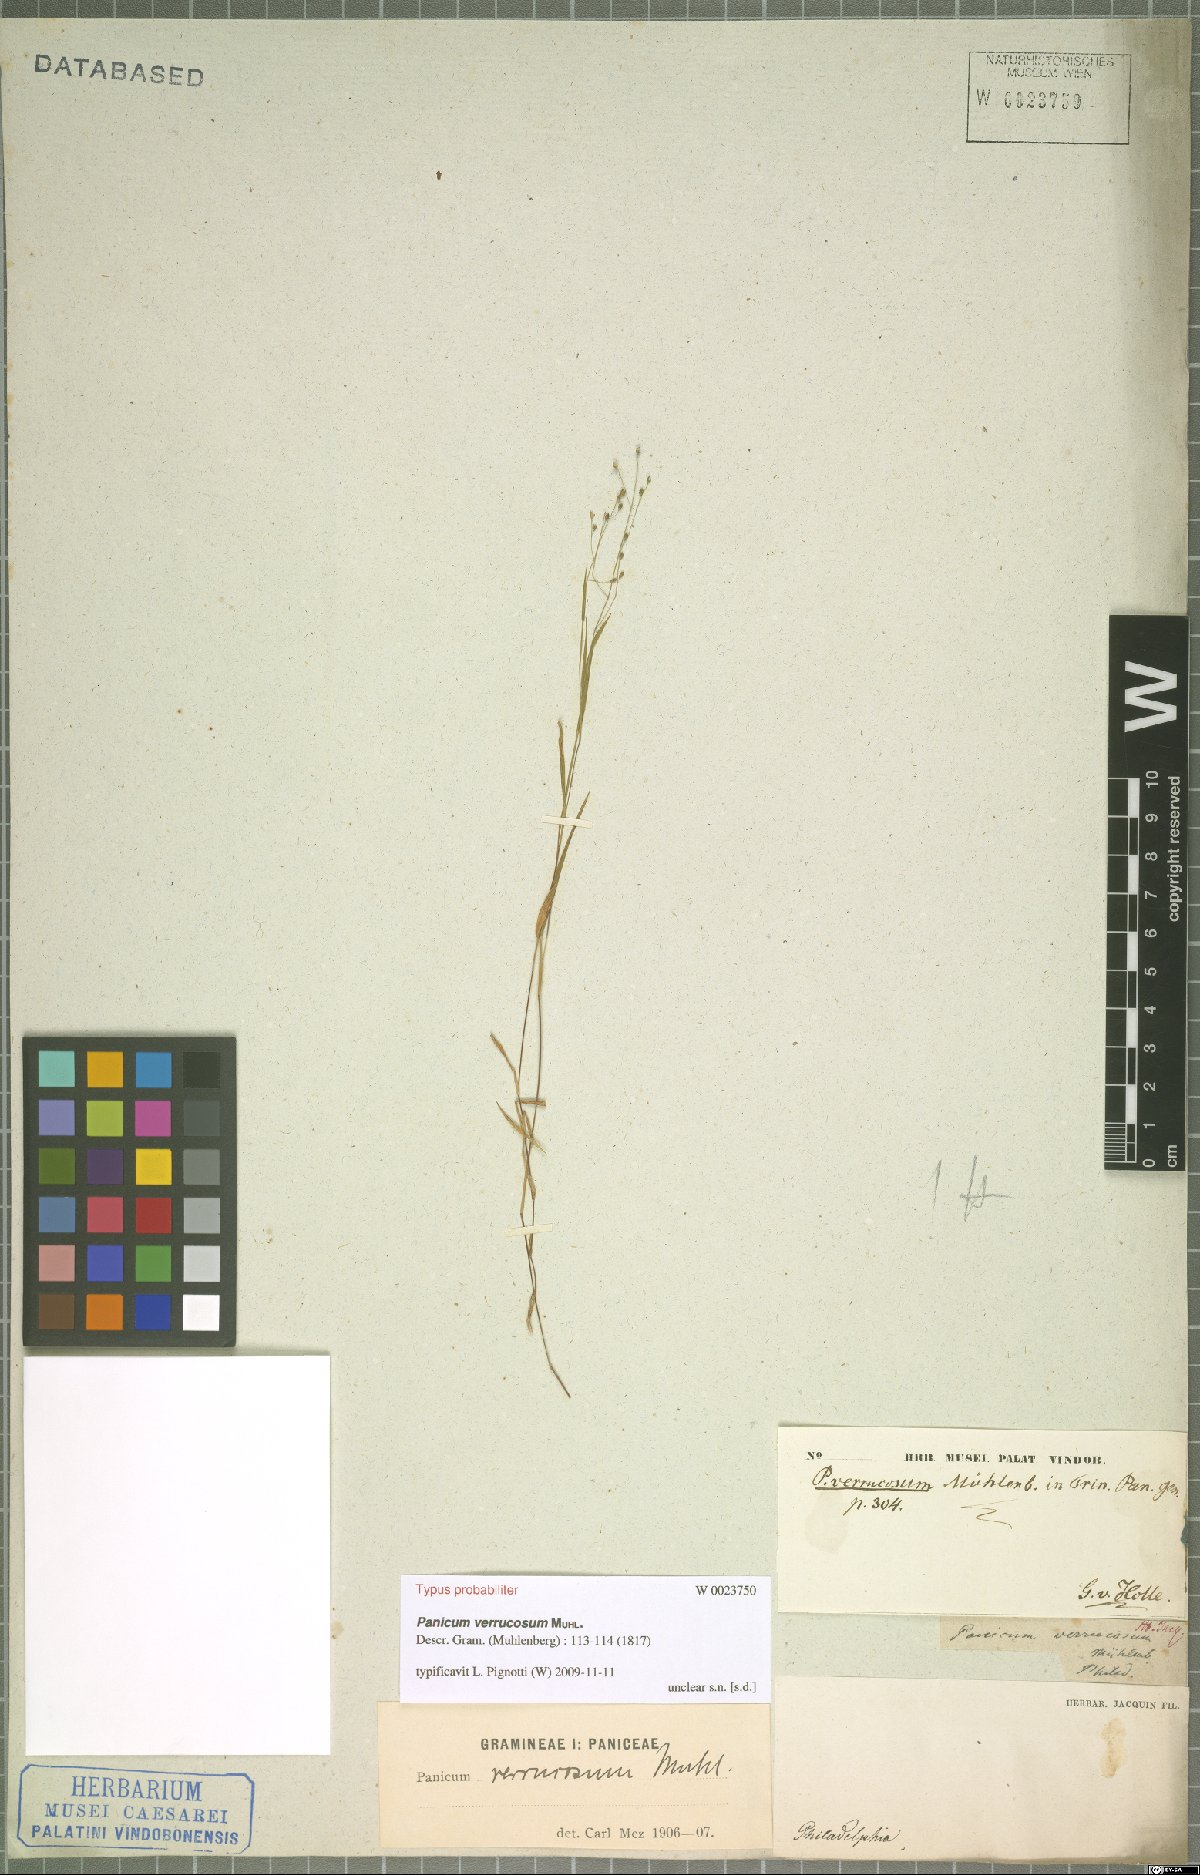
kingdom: Plantae
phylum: Tracheophyta
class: Liliopsida
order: Poales
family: Poaceae
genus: Kellochloa
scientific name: Kellochloa verrucosa
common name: Warty panic grass
